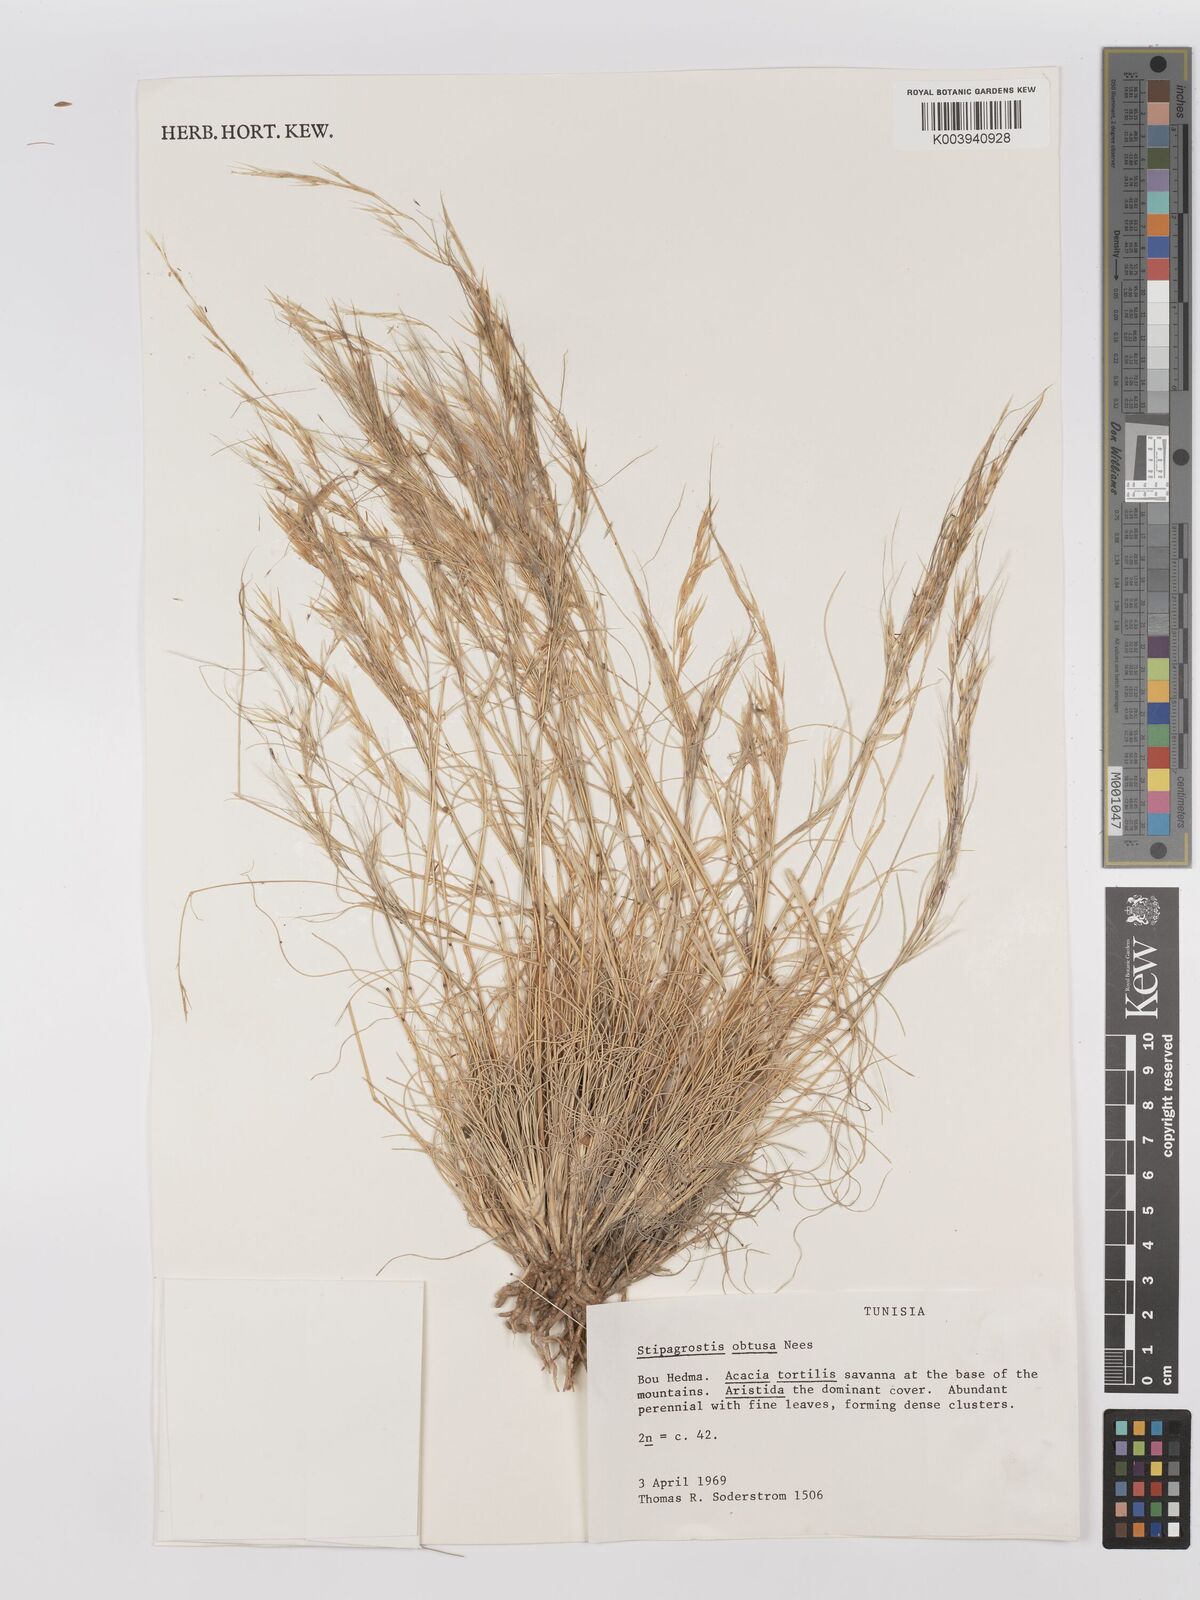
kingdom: Plantae
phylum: Tracheophyta
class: Liliopsida
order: Poales
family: Poaceae
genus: Stipagrostis
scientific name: Stipagrostis obtusa
